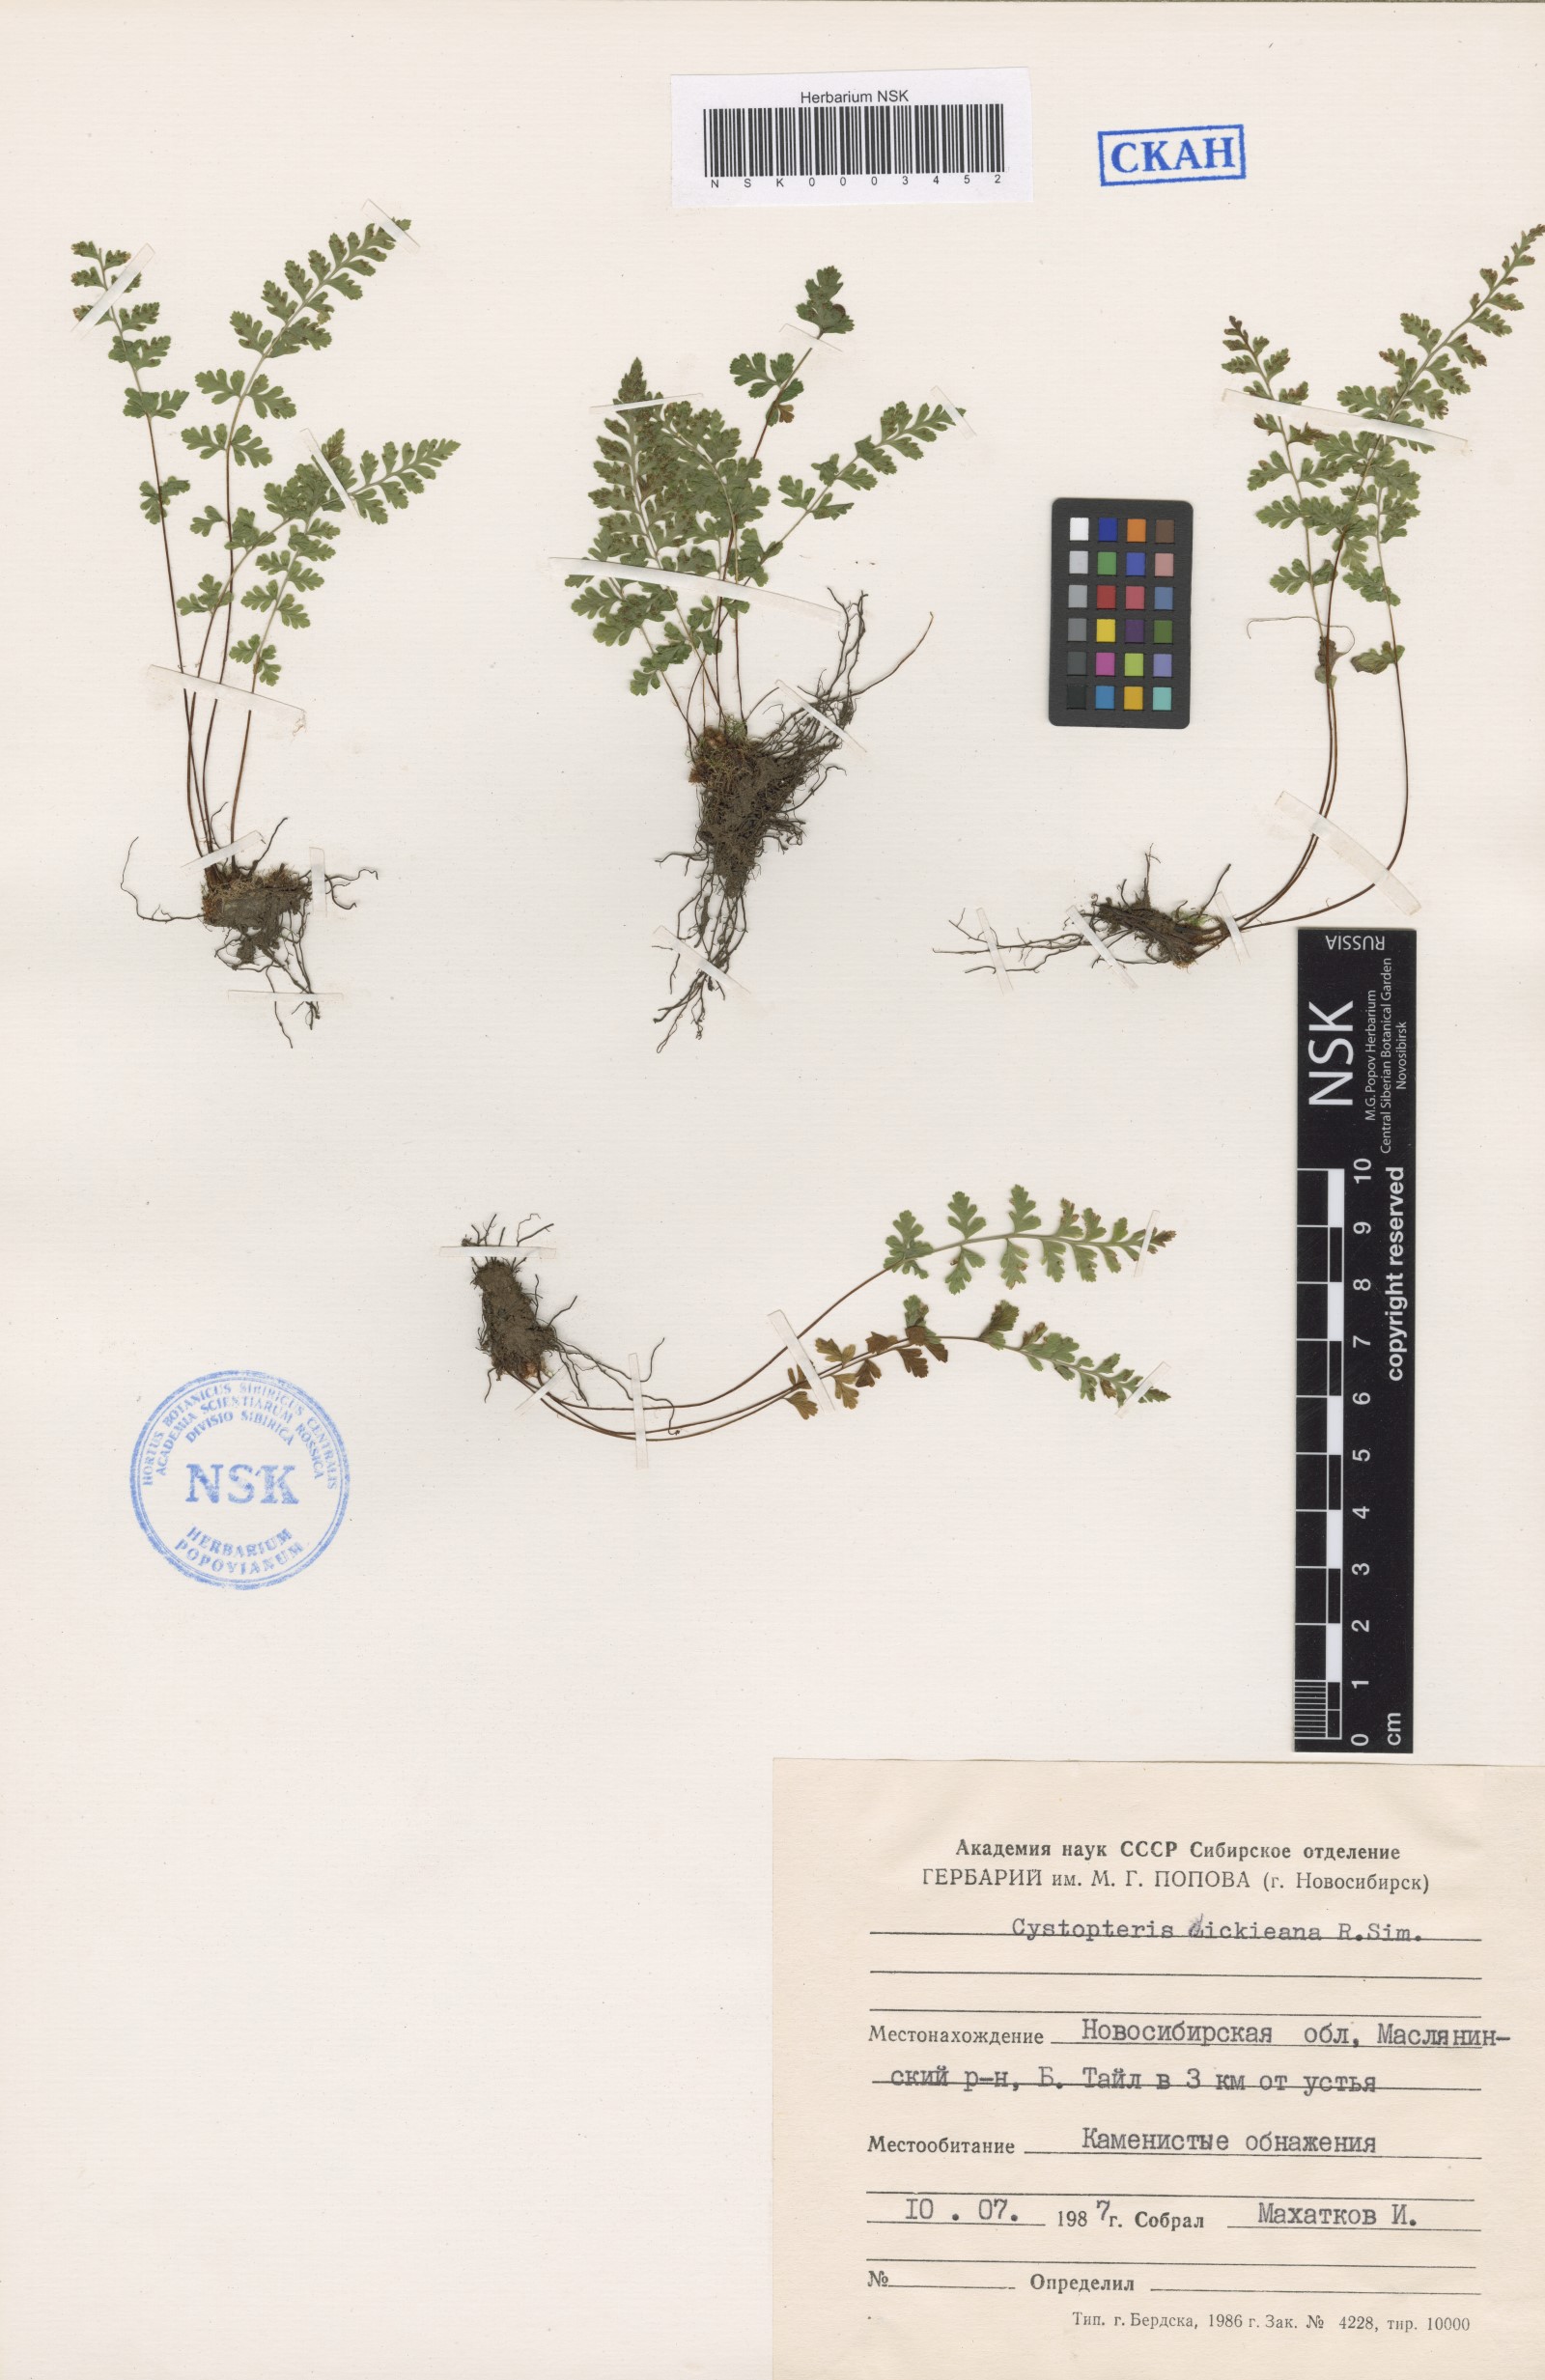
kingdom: Plantae
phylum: Tracheophyta
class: Polypodiopsida
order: Polypodiales
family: Cystopteridaceae
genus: Cystopteris
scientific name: Cystopteris dickieana
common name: Dickie's bladder-fern
